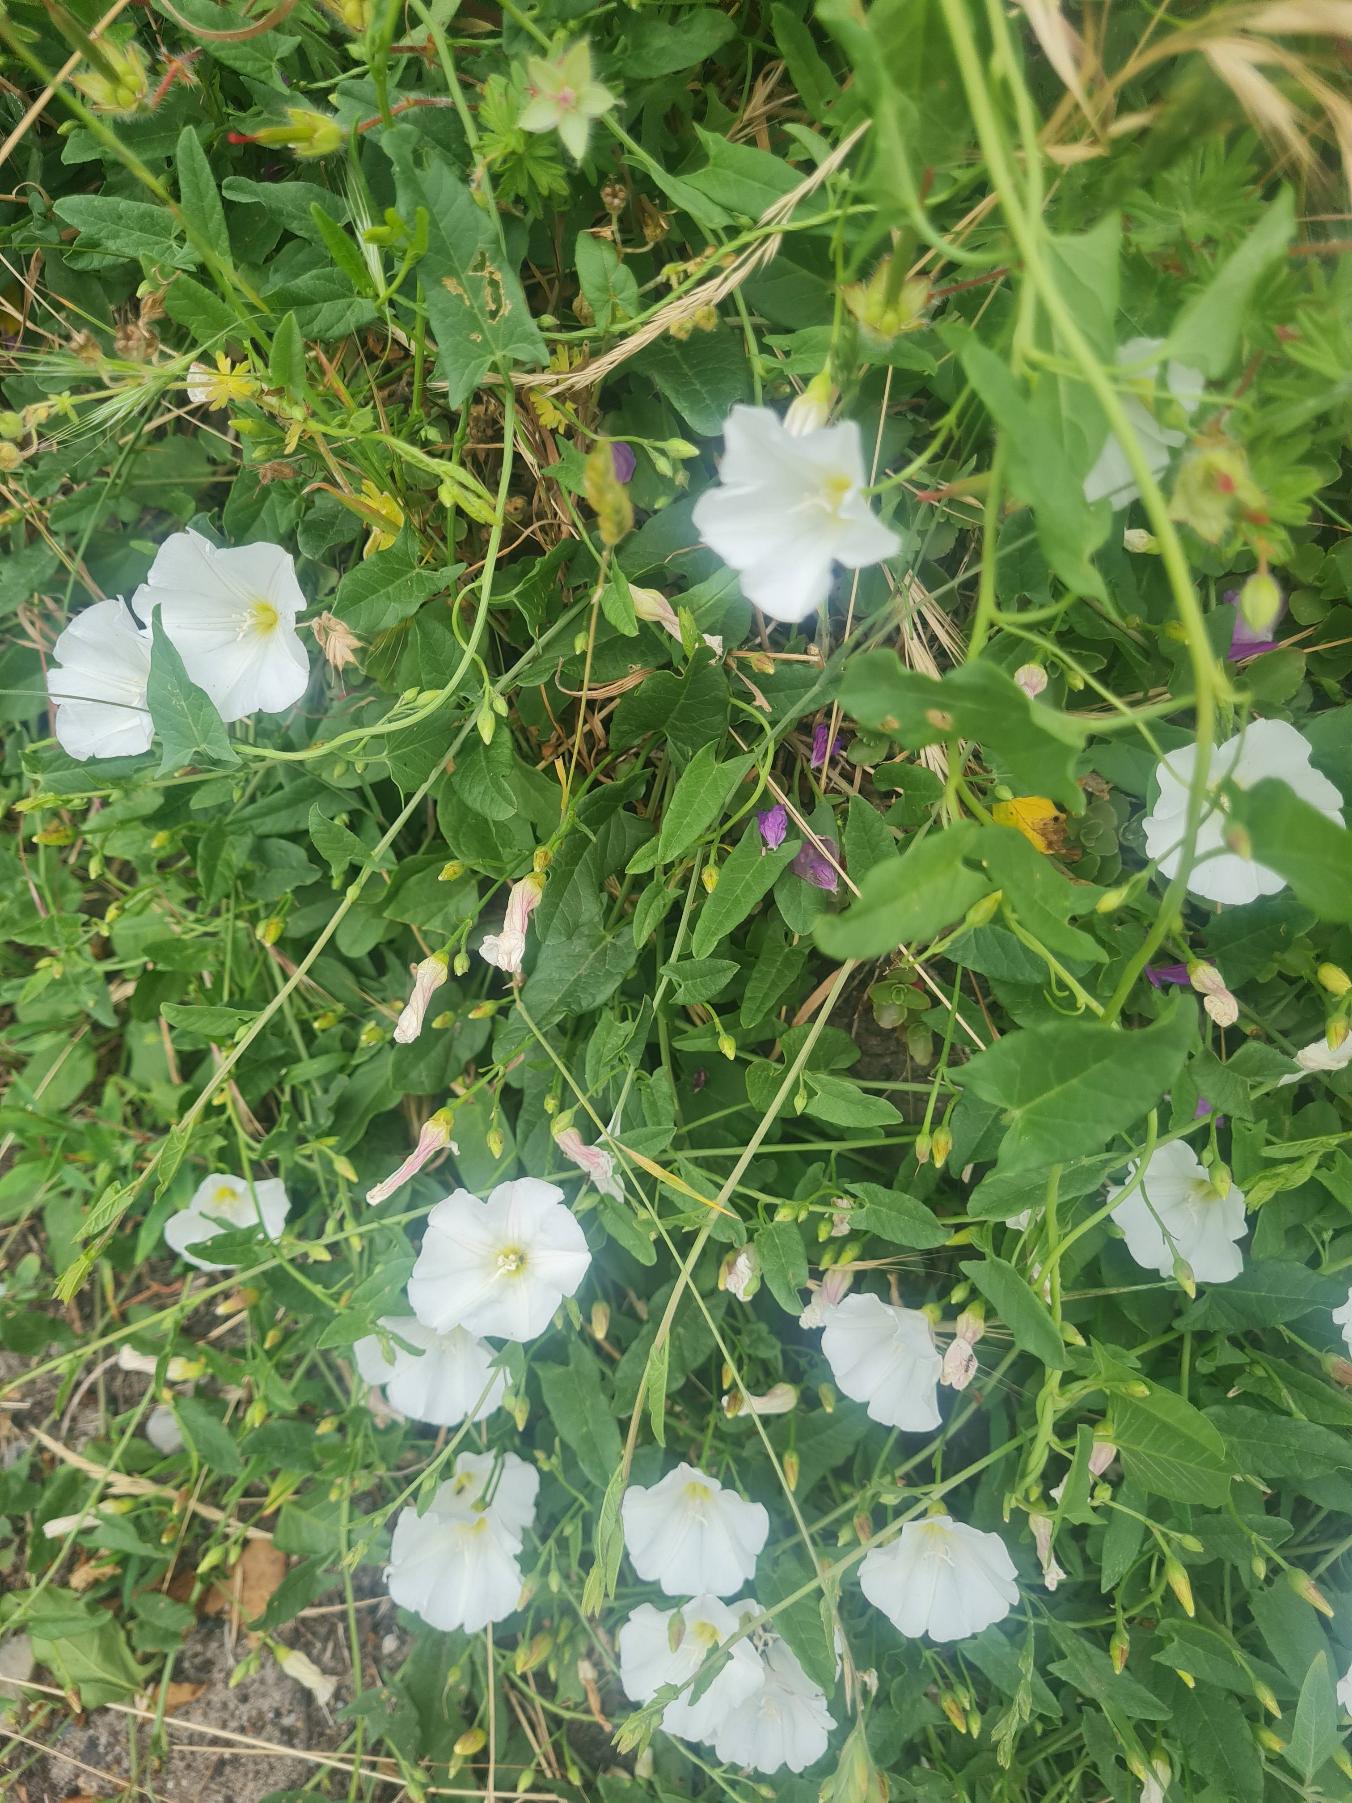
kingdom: Plantae
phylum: Tracheophyta
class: Magnoliopsida
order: Solanales
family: Convolvulaceae
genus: Convolvulus
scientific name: Convolvulus arvensis
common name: Ager-snerle
